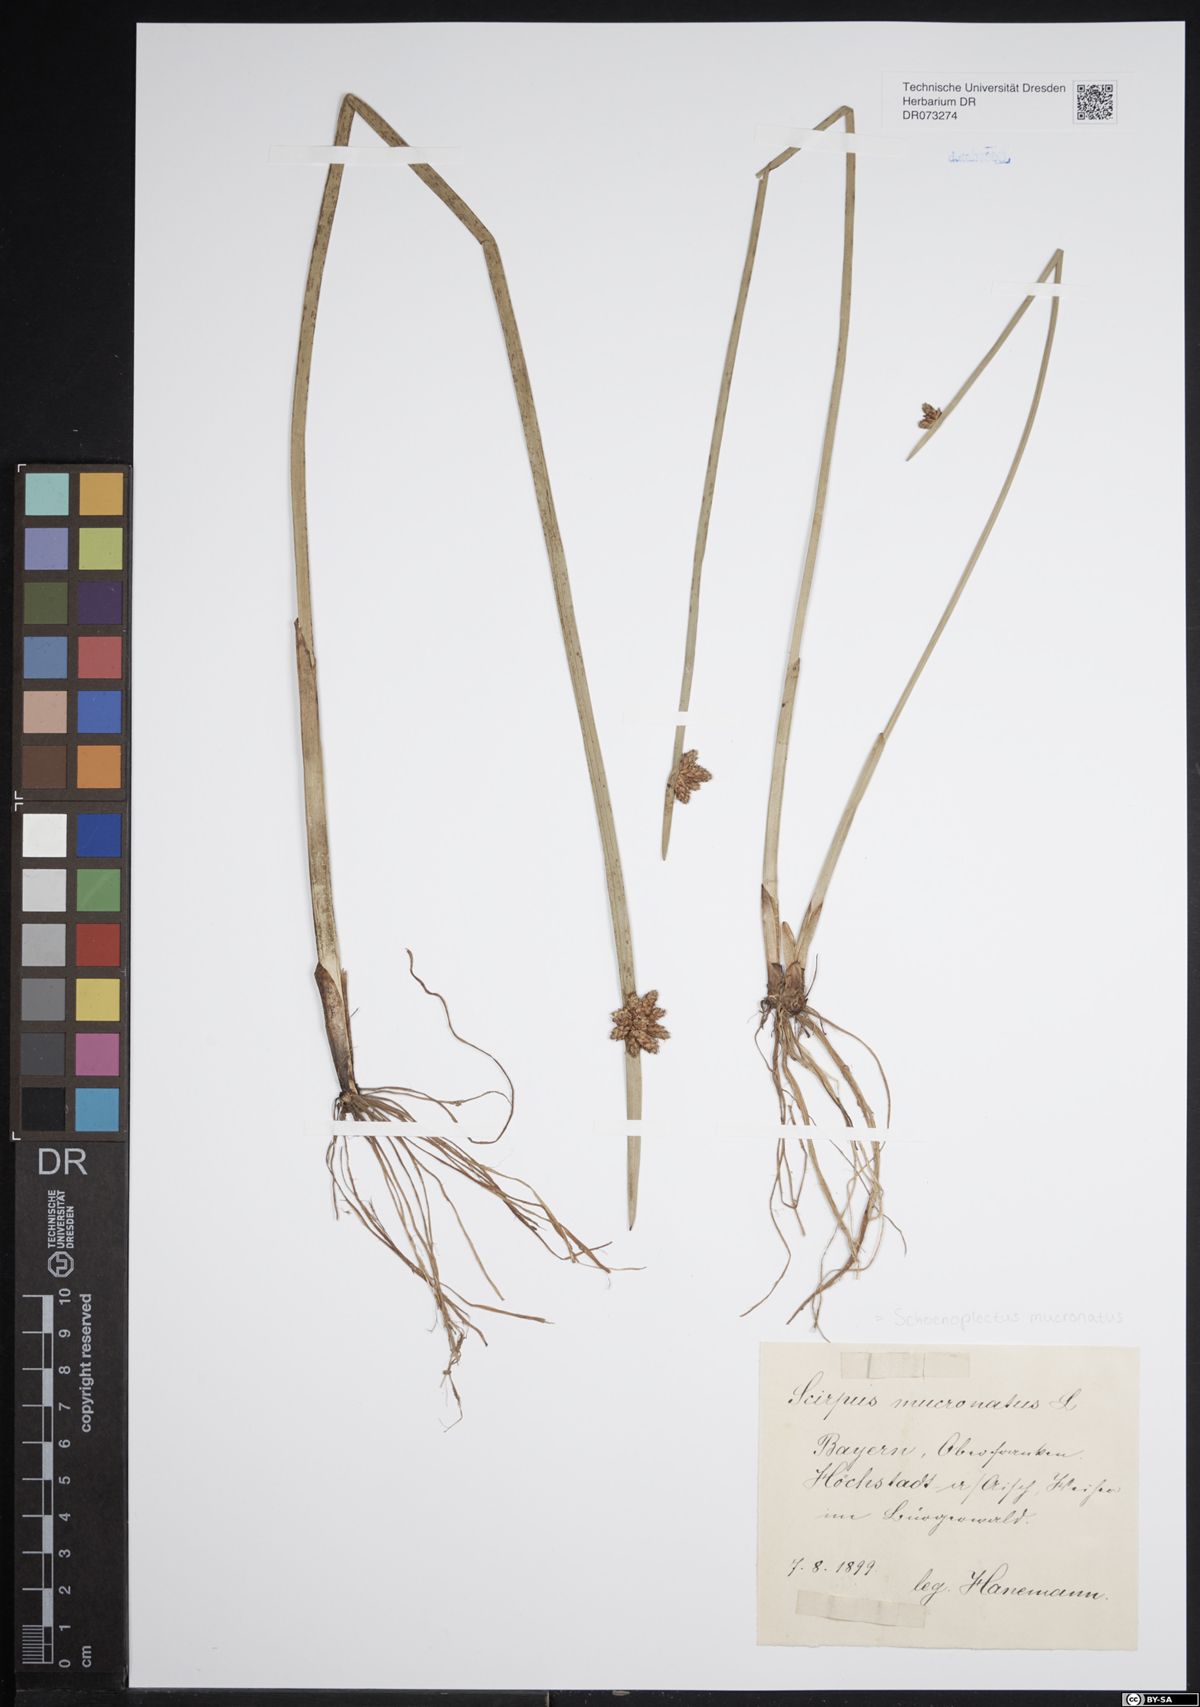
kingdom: Plantae
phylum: Tracheophyta
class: Liliopsida
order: Poales
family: Cyperaceae
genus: Schoenoplectiella
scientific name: Schoenoplectiella mucronata
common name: Bog bulrush
